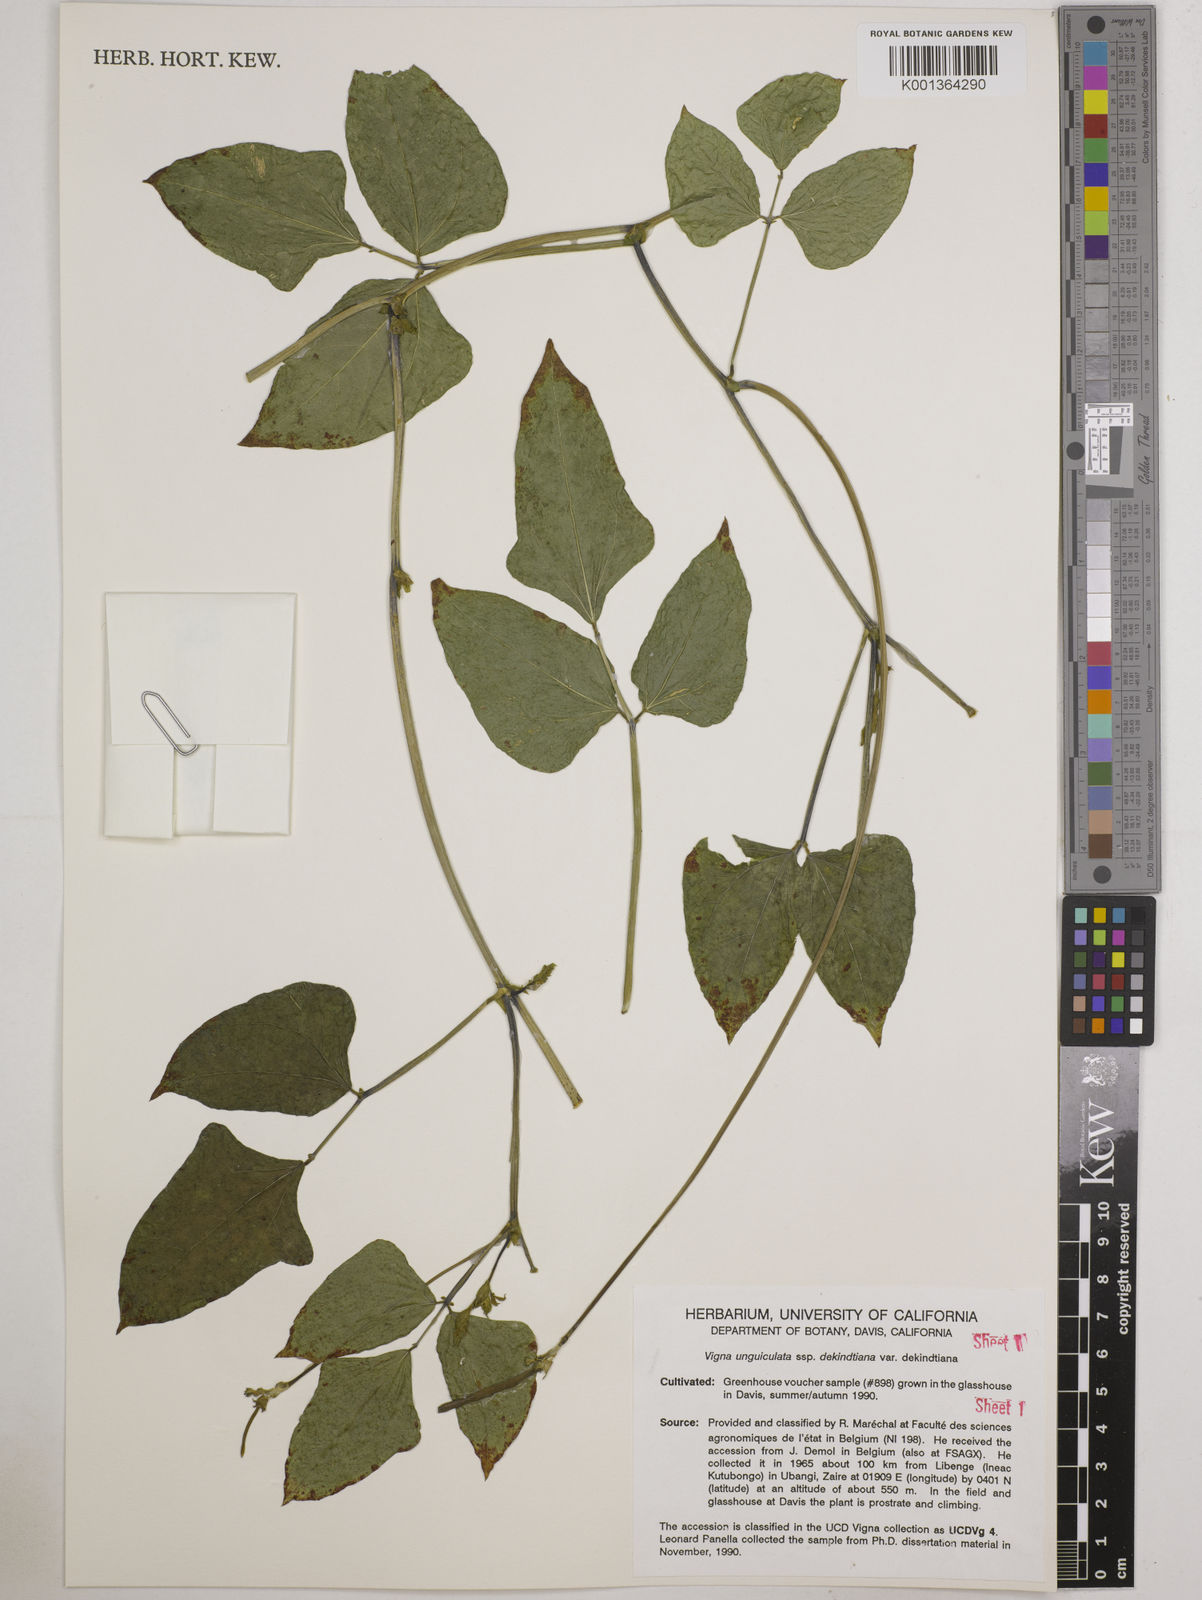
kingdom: Plantae
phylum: Tracheophyta
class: Magnoliopsida
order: Fabales
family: Fabaceae
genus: Vigna
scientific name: Vigna
